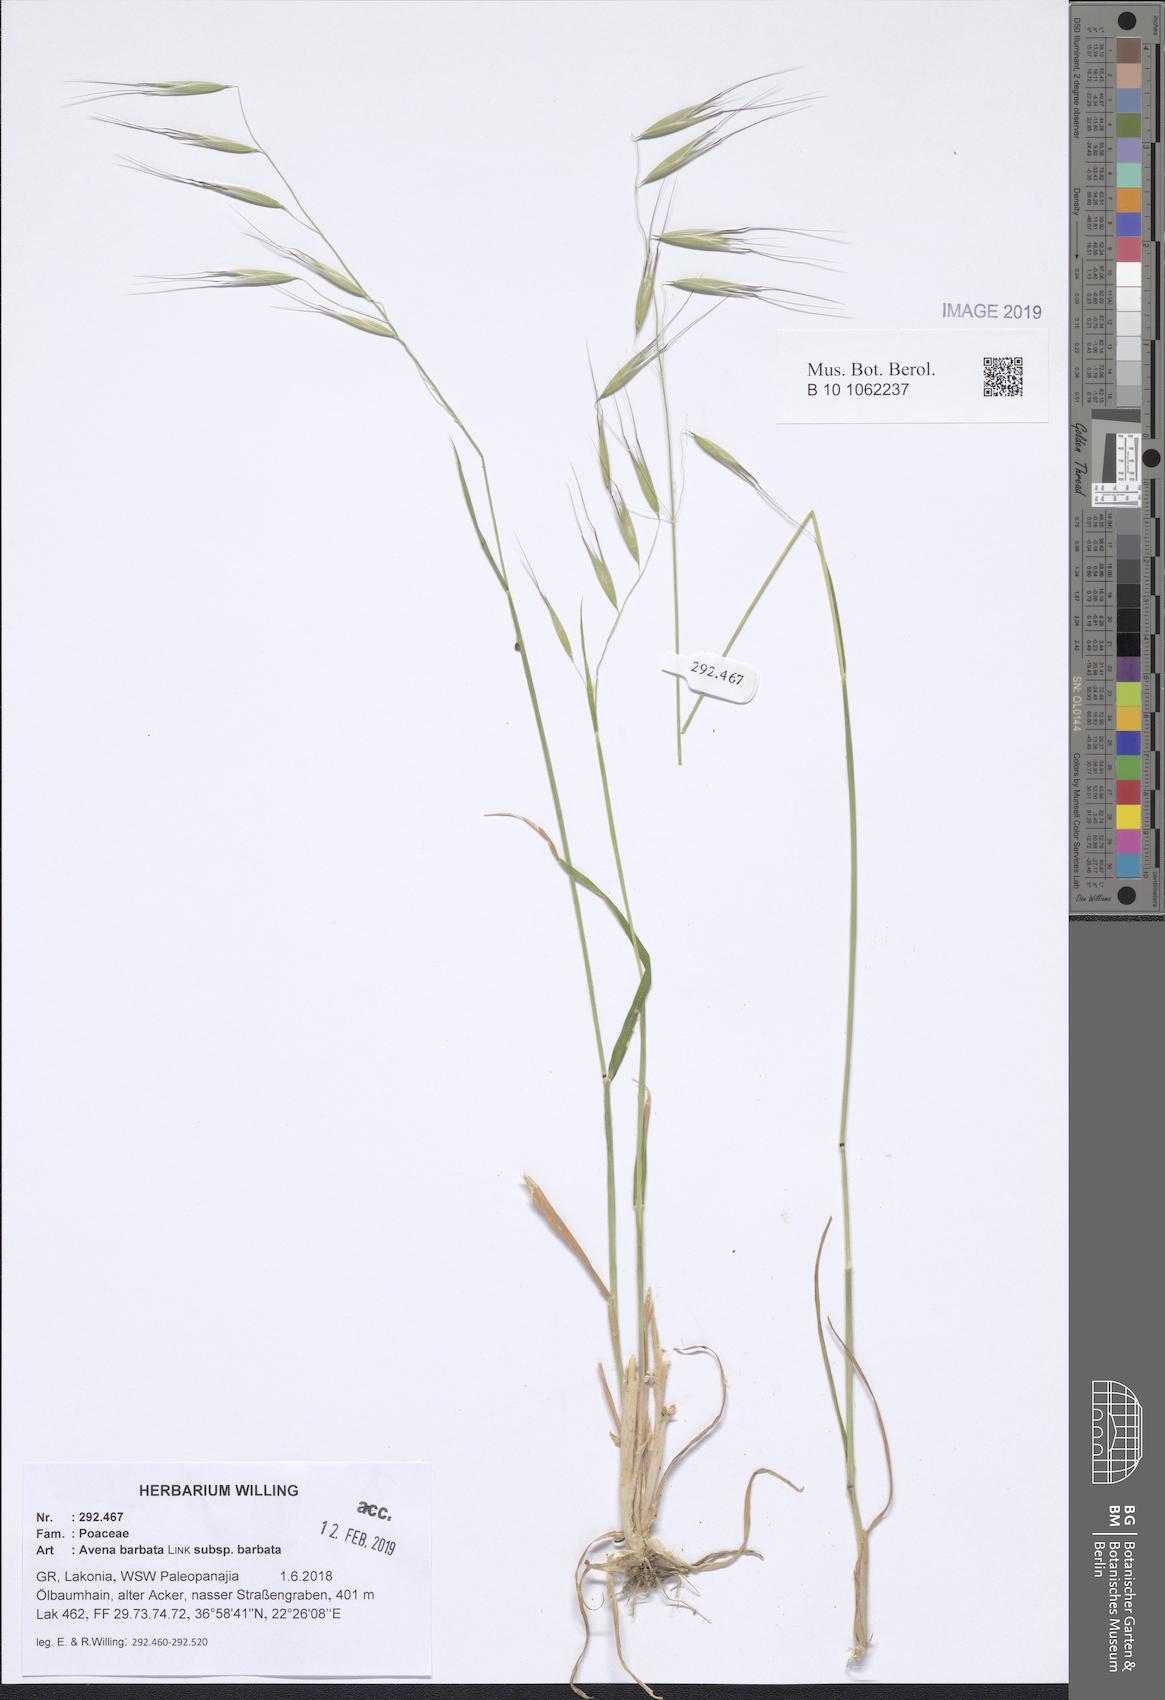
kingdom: Plantae
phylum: Tracheophyta
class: Liliopsida
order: Poales
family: Poaceae
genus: Avena
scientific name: Avena barbata
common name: Slender oat
